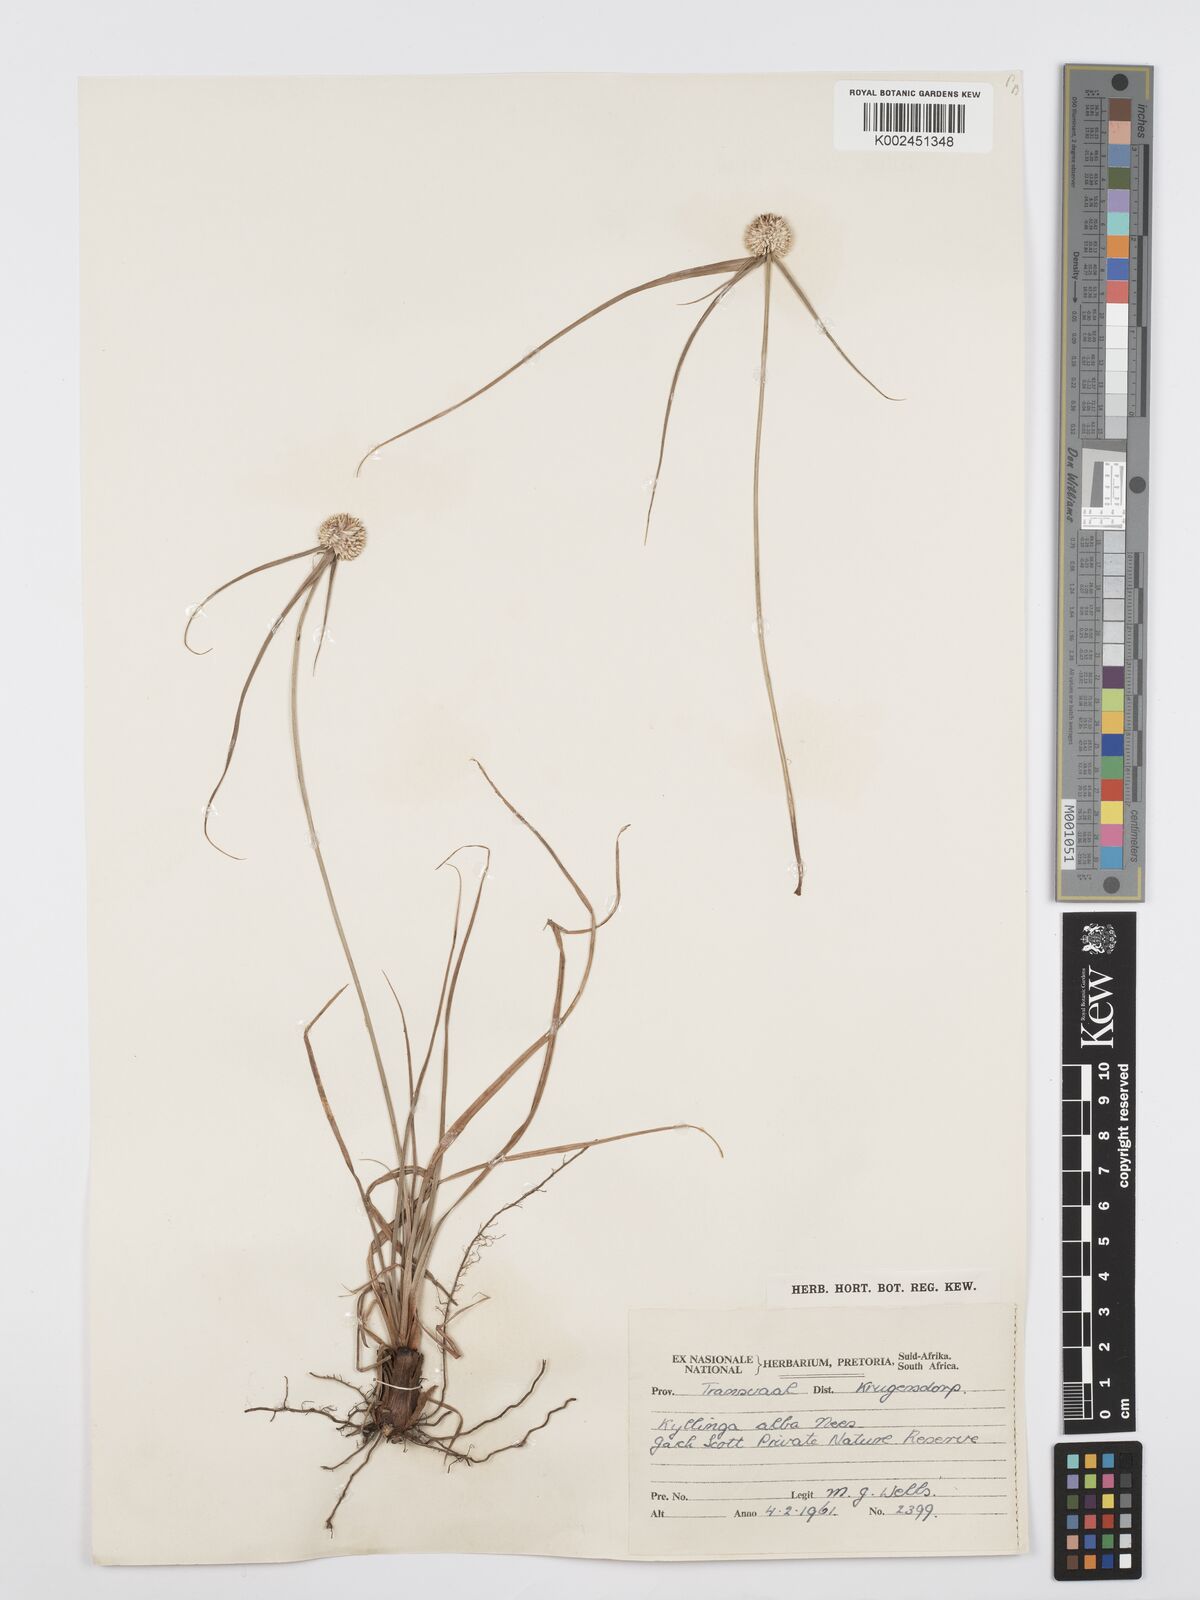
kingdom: Plantae
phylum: Tracheophyta
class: Liliopsida
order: Poales
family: Cyperaceae
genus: Cyperus
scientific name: Cyperus
